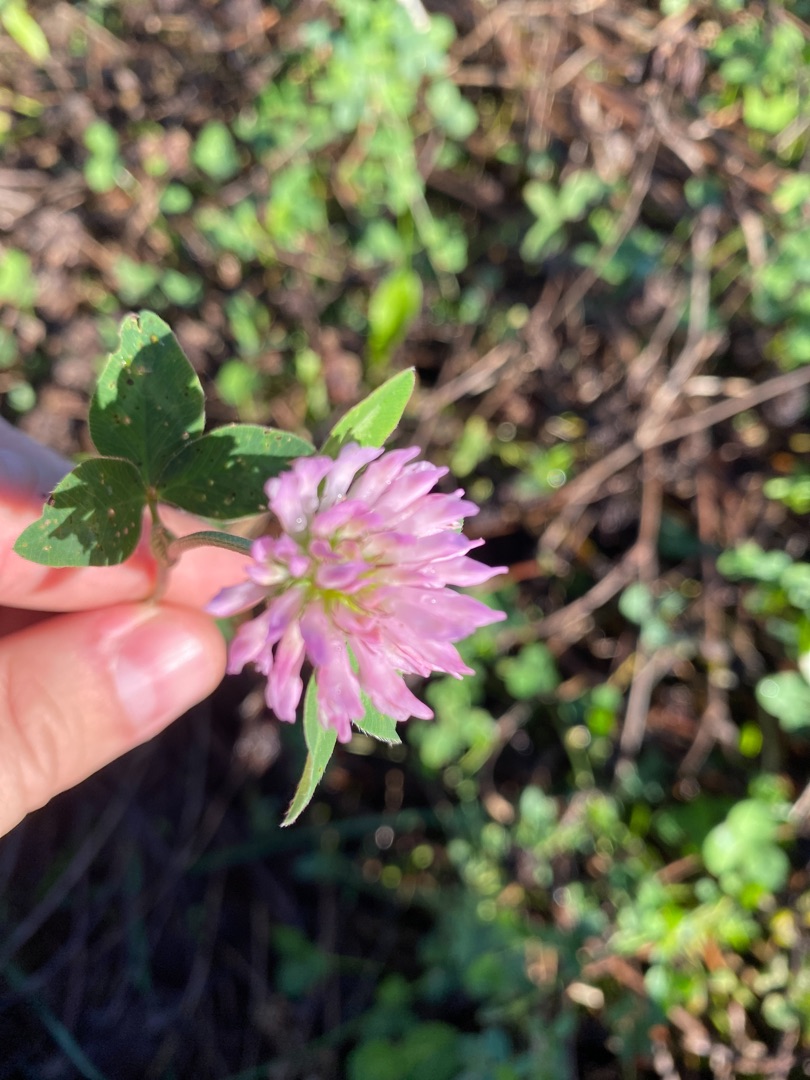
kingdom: Plantae
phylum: Tracheophyta
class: Magnoliopsida
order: Fabales
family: Fabaceae
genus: Trifolium
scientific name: Trifolium pratense
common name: Rød-kløver
